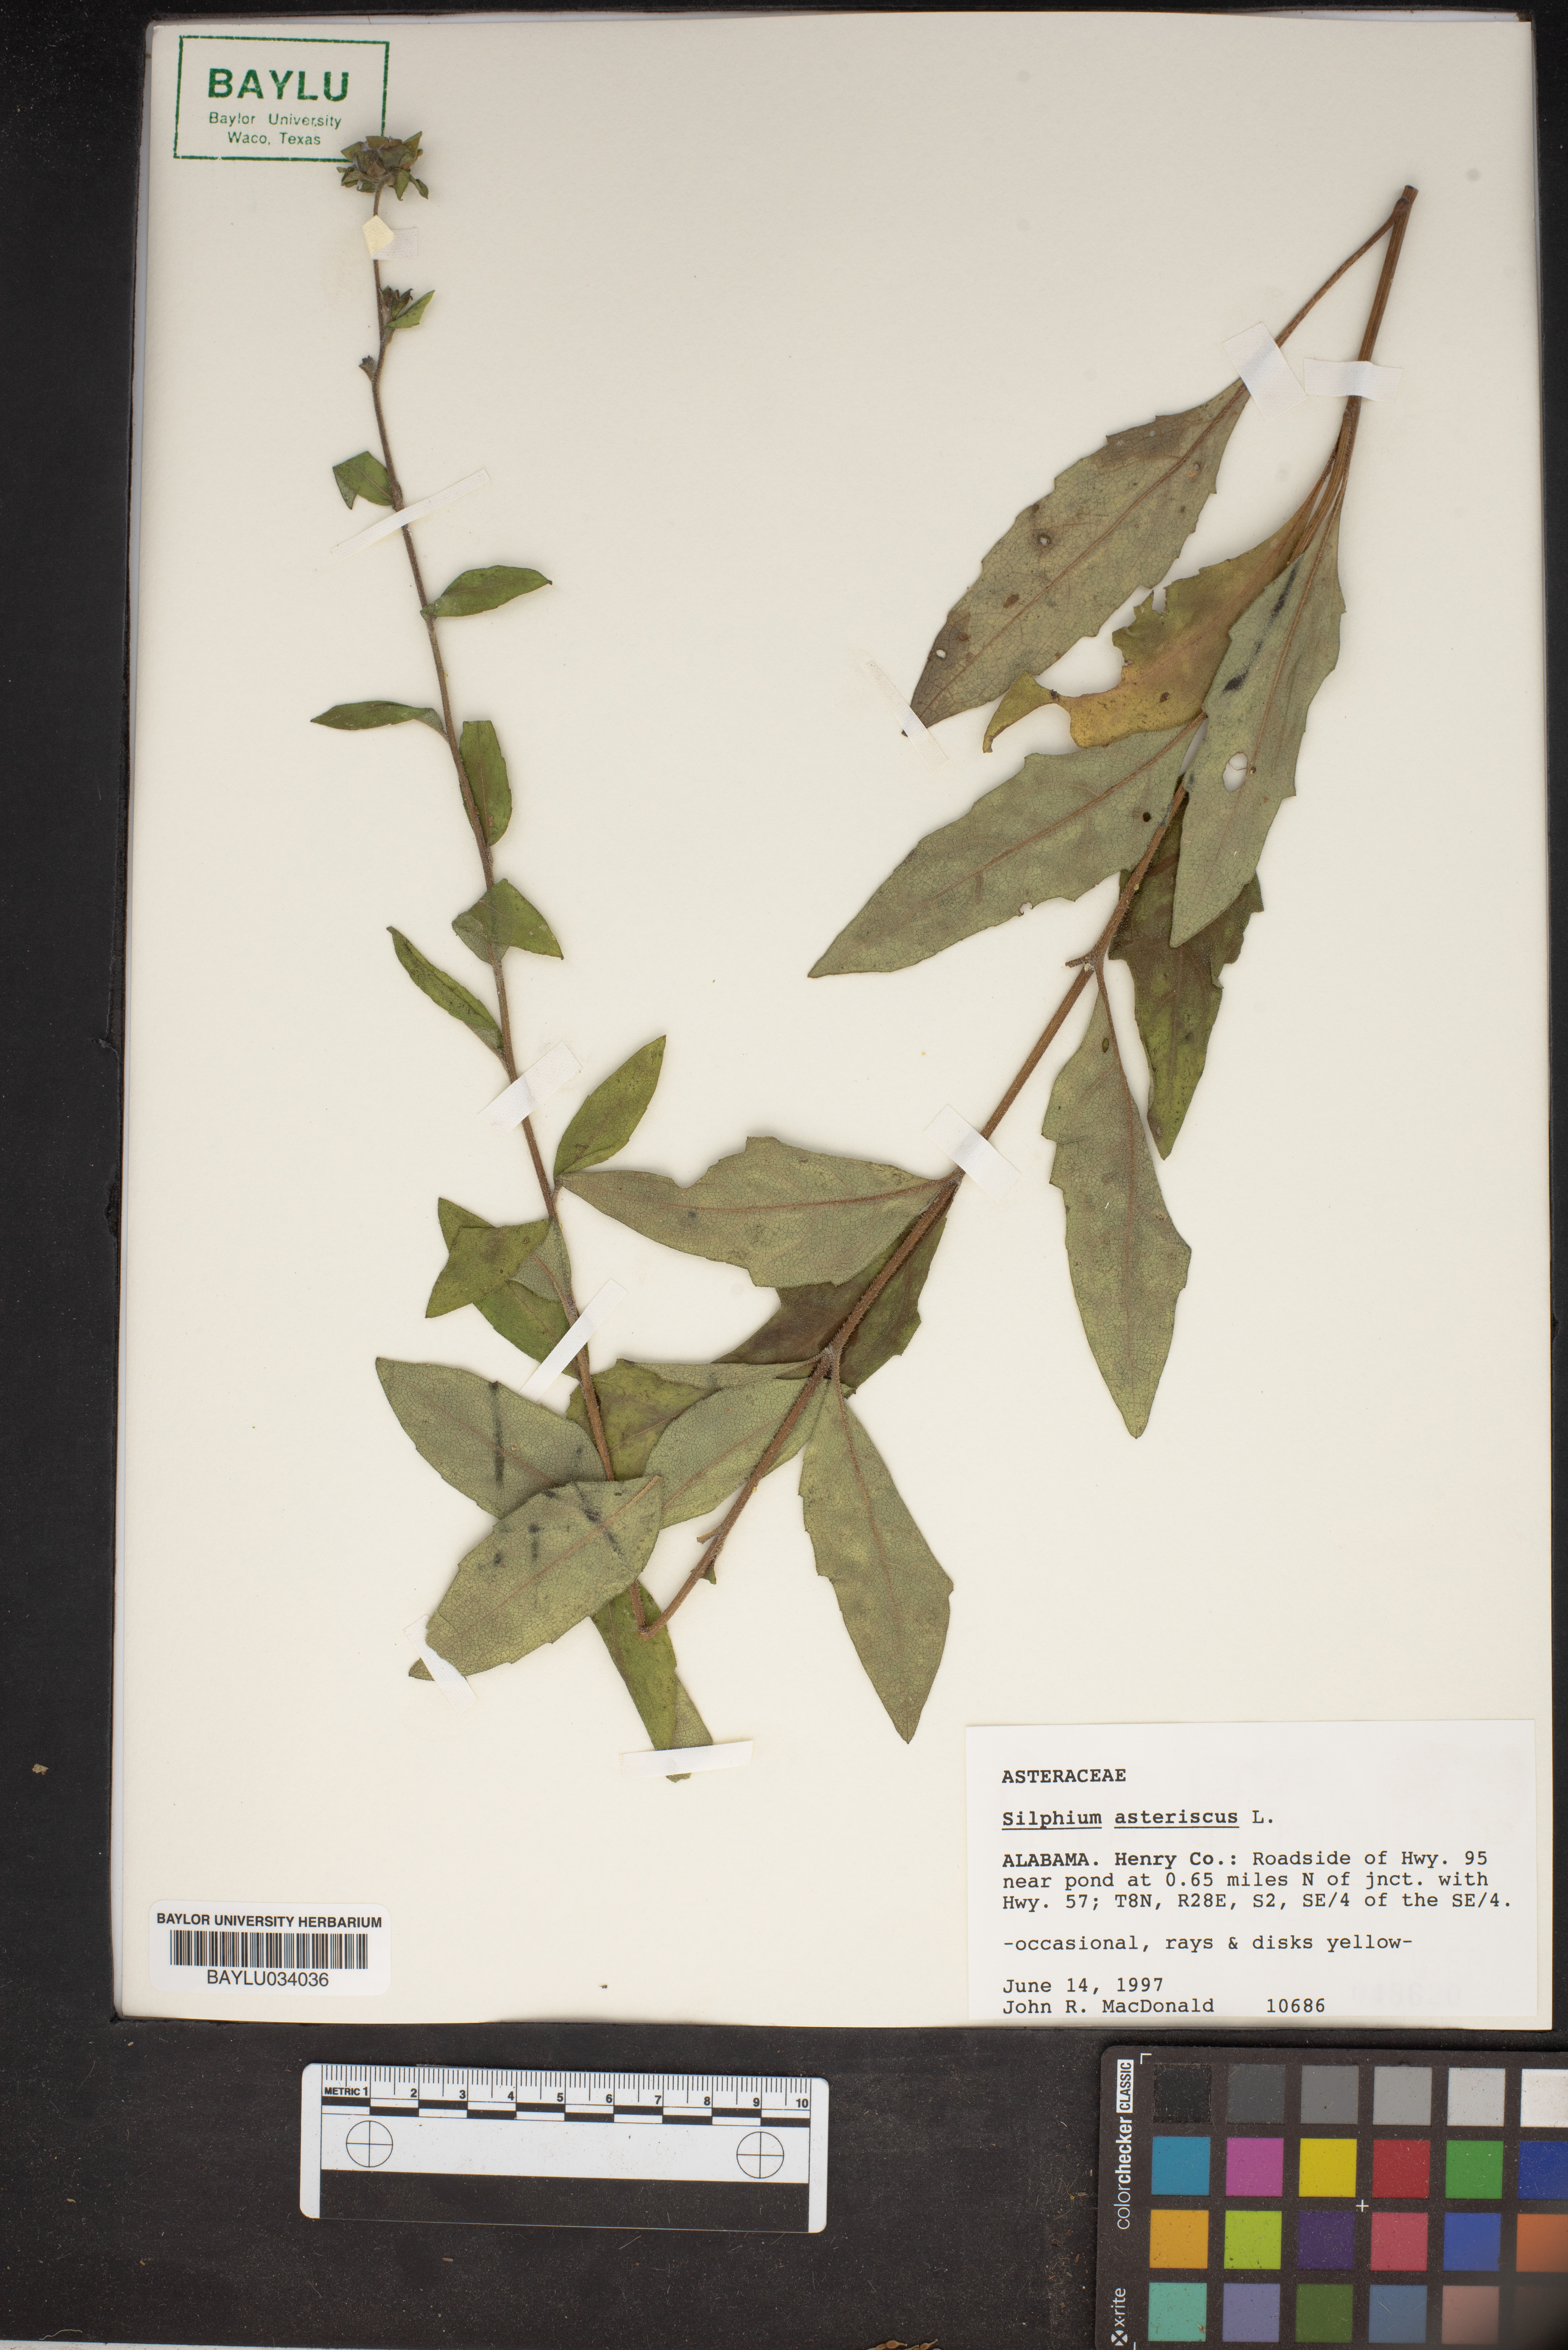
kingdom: Plantae
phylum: Tracheophyta
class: Magnoliopsida
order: Asterales
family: Asteraceae
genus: Silphium
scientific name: Silphium asteriscus
